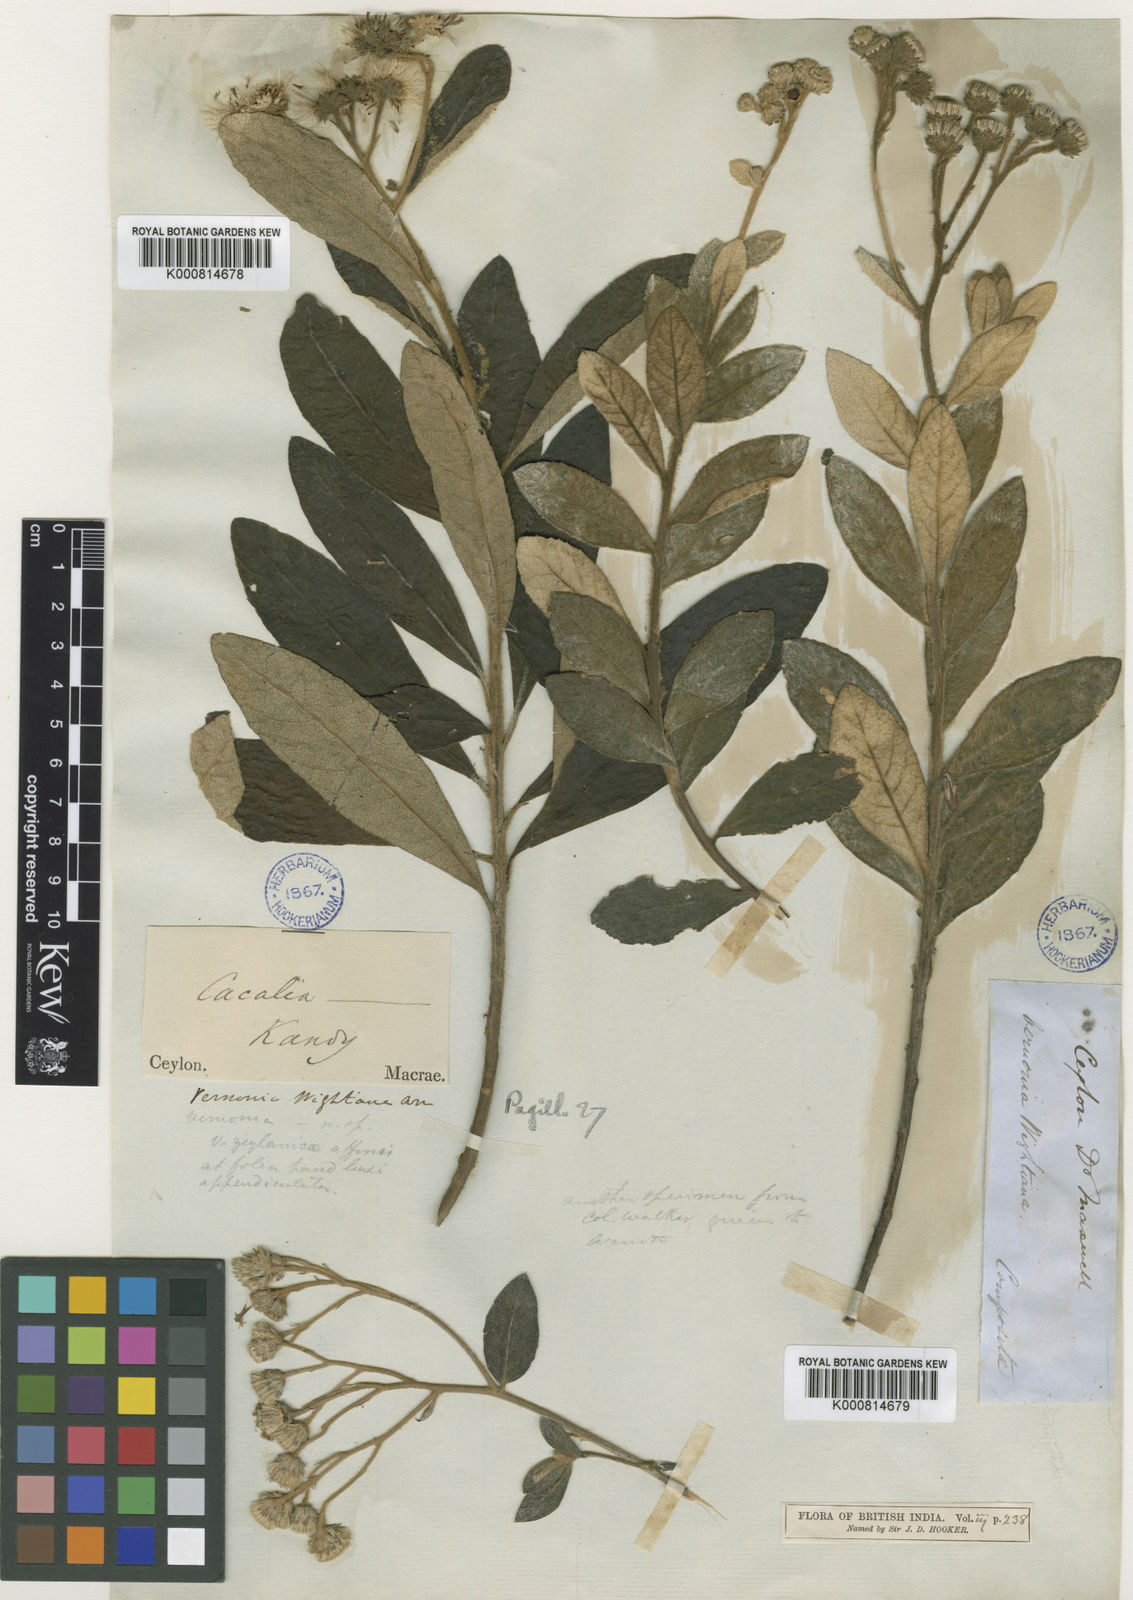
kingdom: Plantae
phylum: Tracheophyta
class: Magnoliopsida
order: Asterales
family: Asteraceae
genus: Vernonia
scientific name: Vernonia
